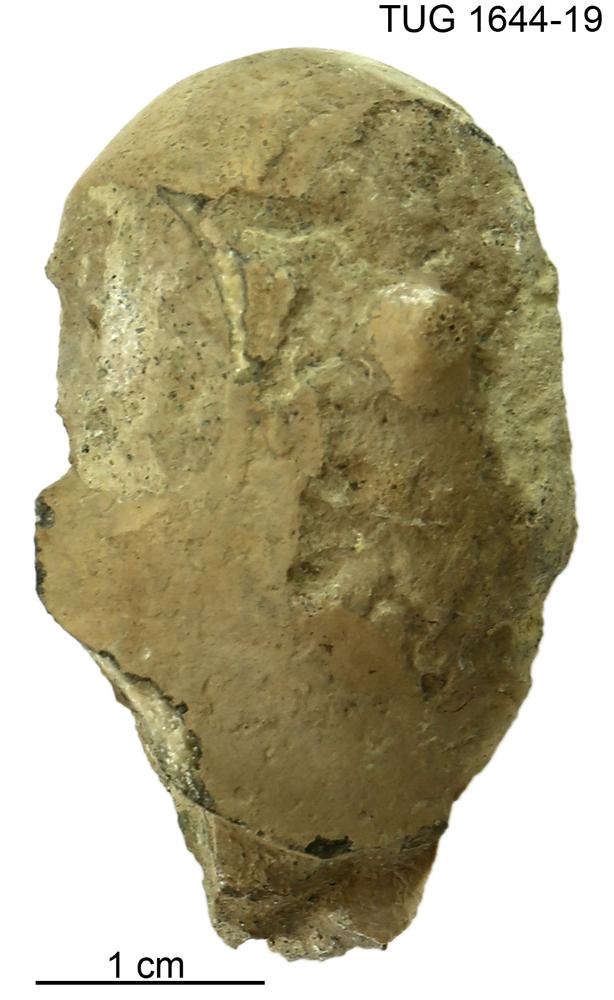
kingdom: Animalia
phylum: Mollusca
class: Gastropoda
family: Bucaniidae
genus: Salpingostoma
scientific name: Salpingostoma locator
